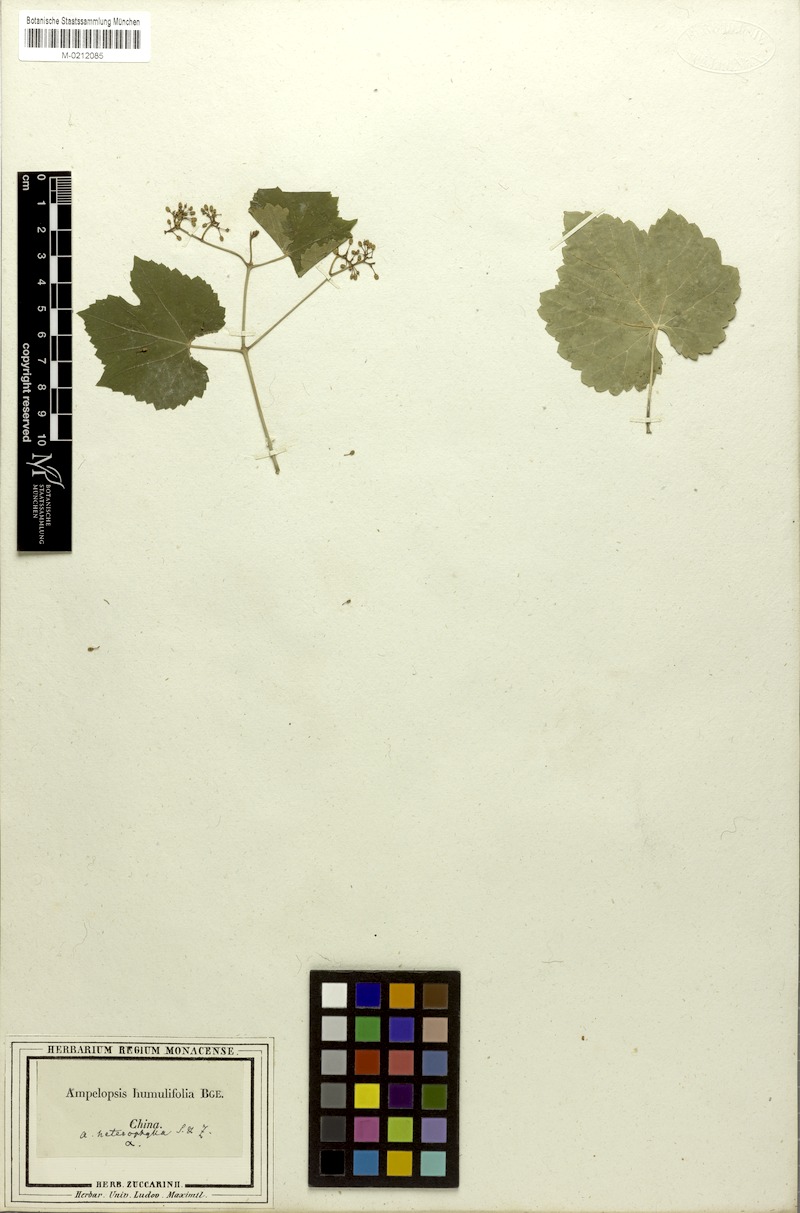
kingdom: Plantae
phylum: Tracheophyta
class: Magnoliopsida
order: Vitales
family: Vitaceae
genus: Ampelopsis
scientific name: Ampelopsis humulifolia
